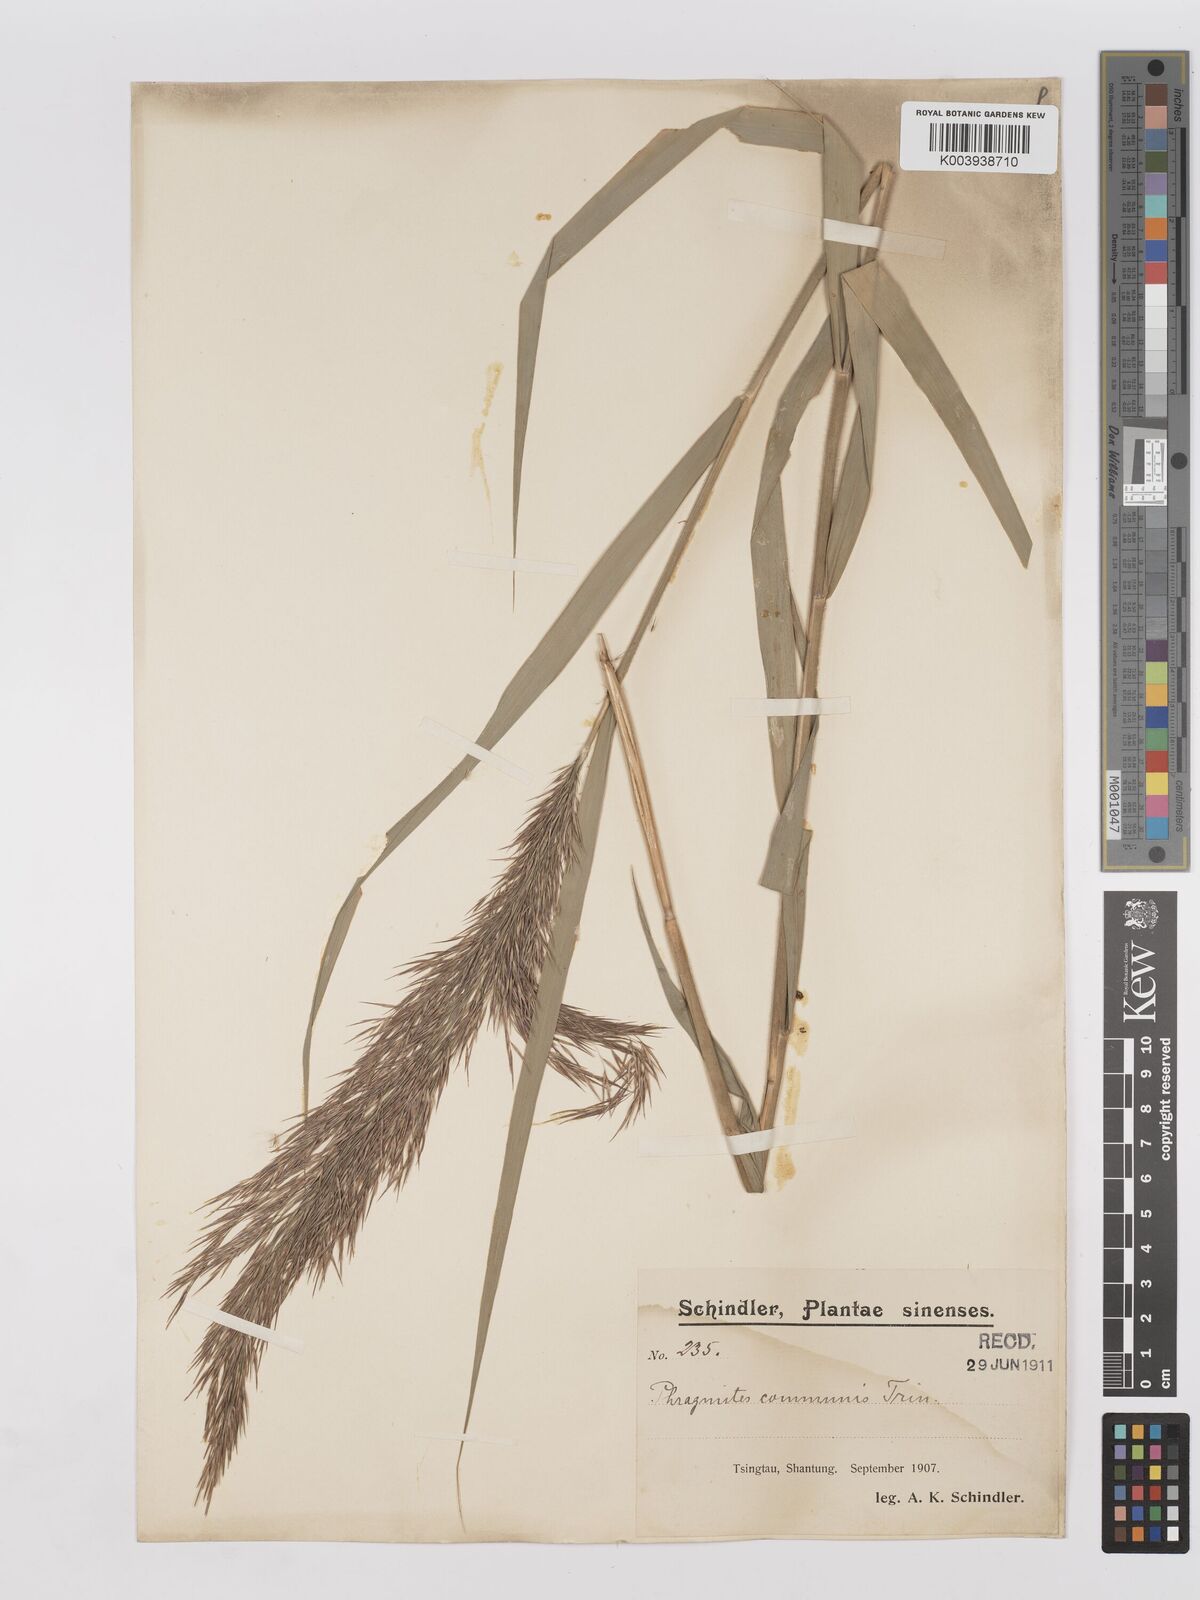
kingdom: Plantae
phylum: Tracheophyta
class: Liliopsida
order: Poales
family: Poaceae
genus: Phragmites
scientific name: Phragmites australis
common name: Common reed
